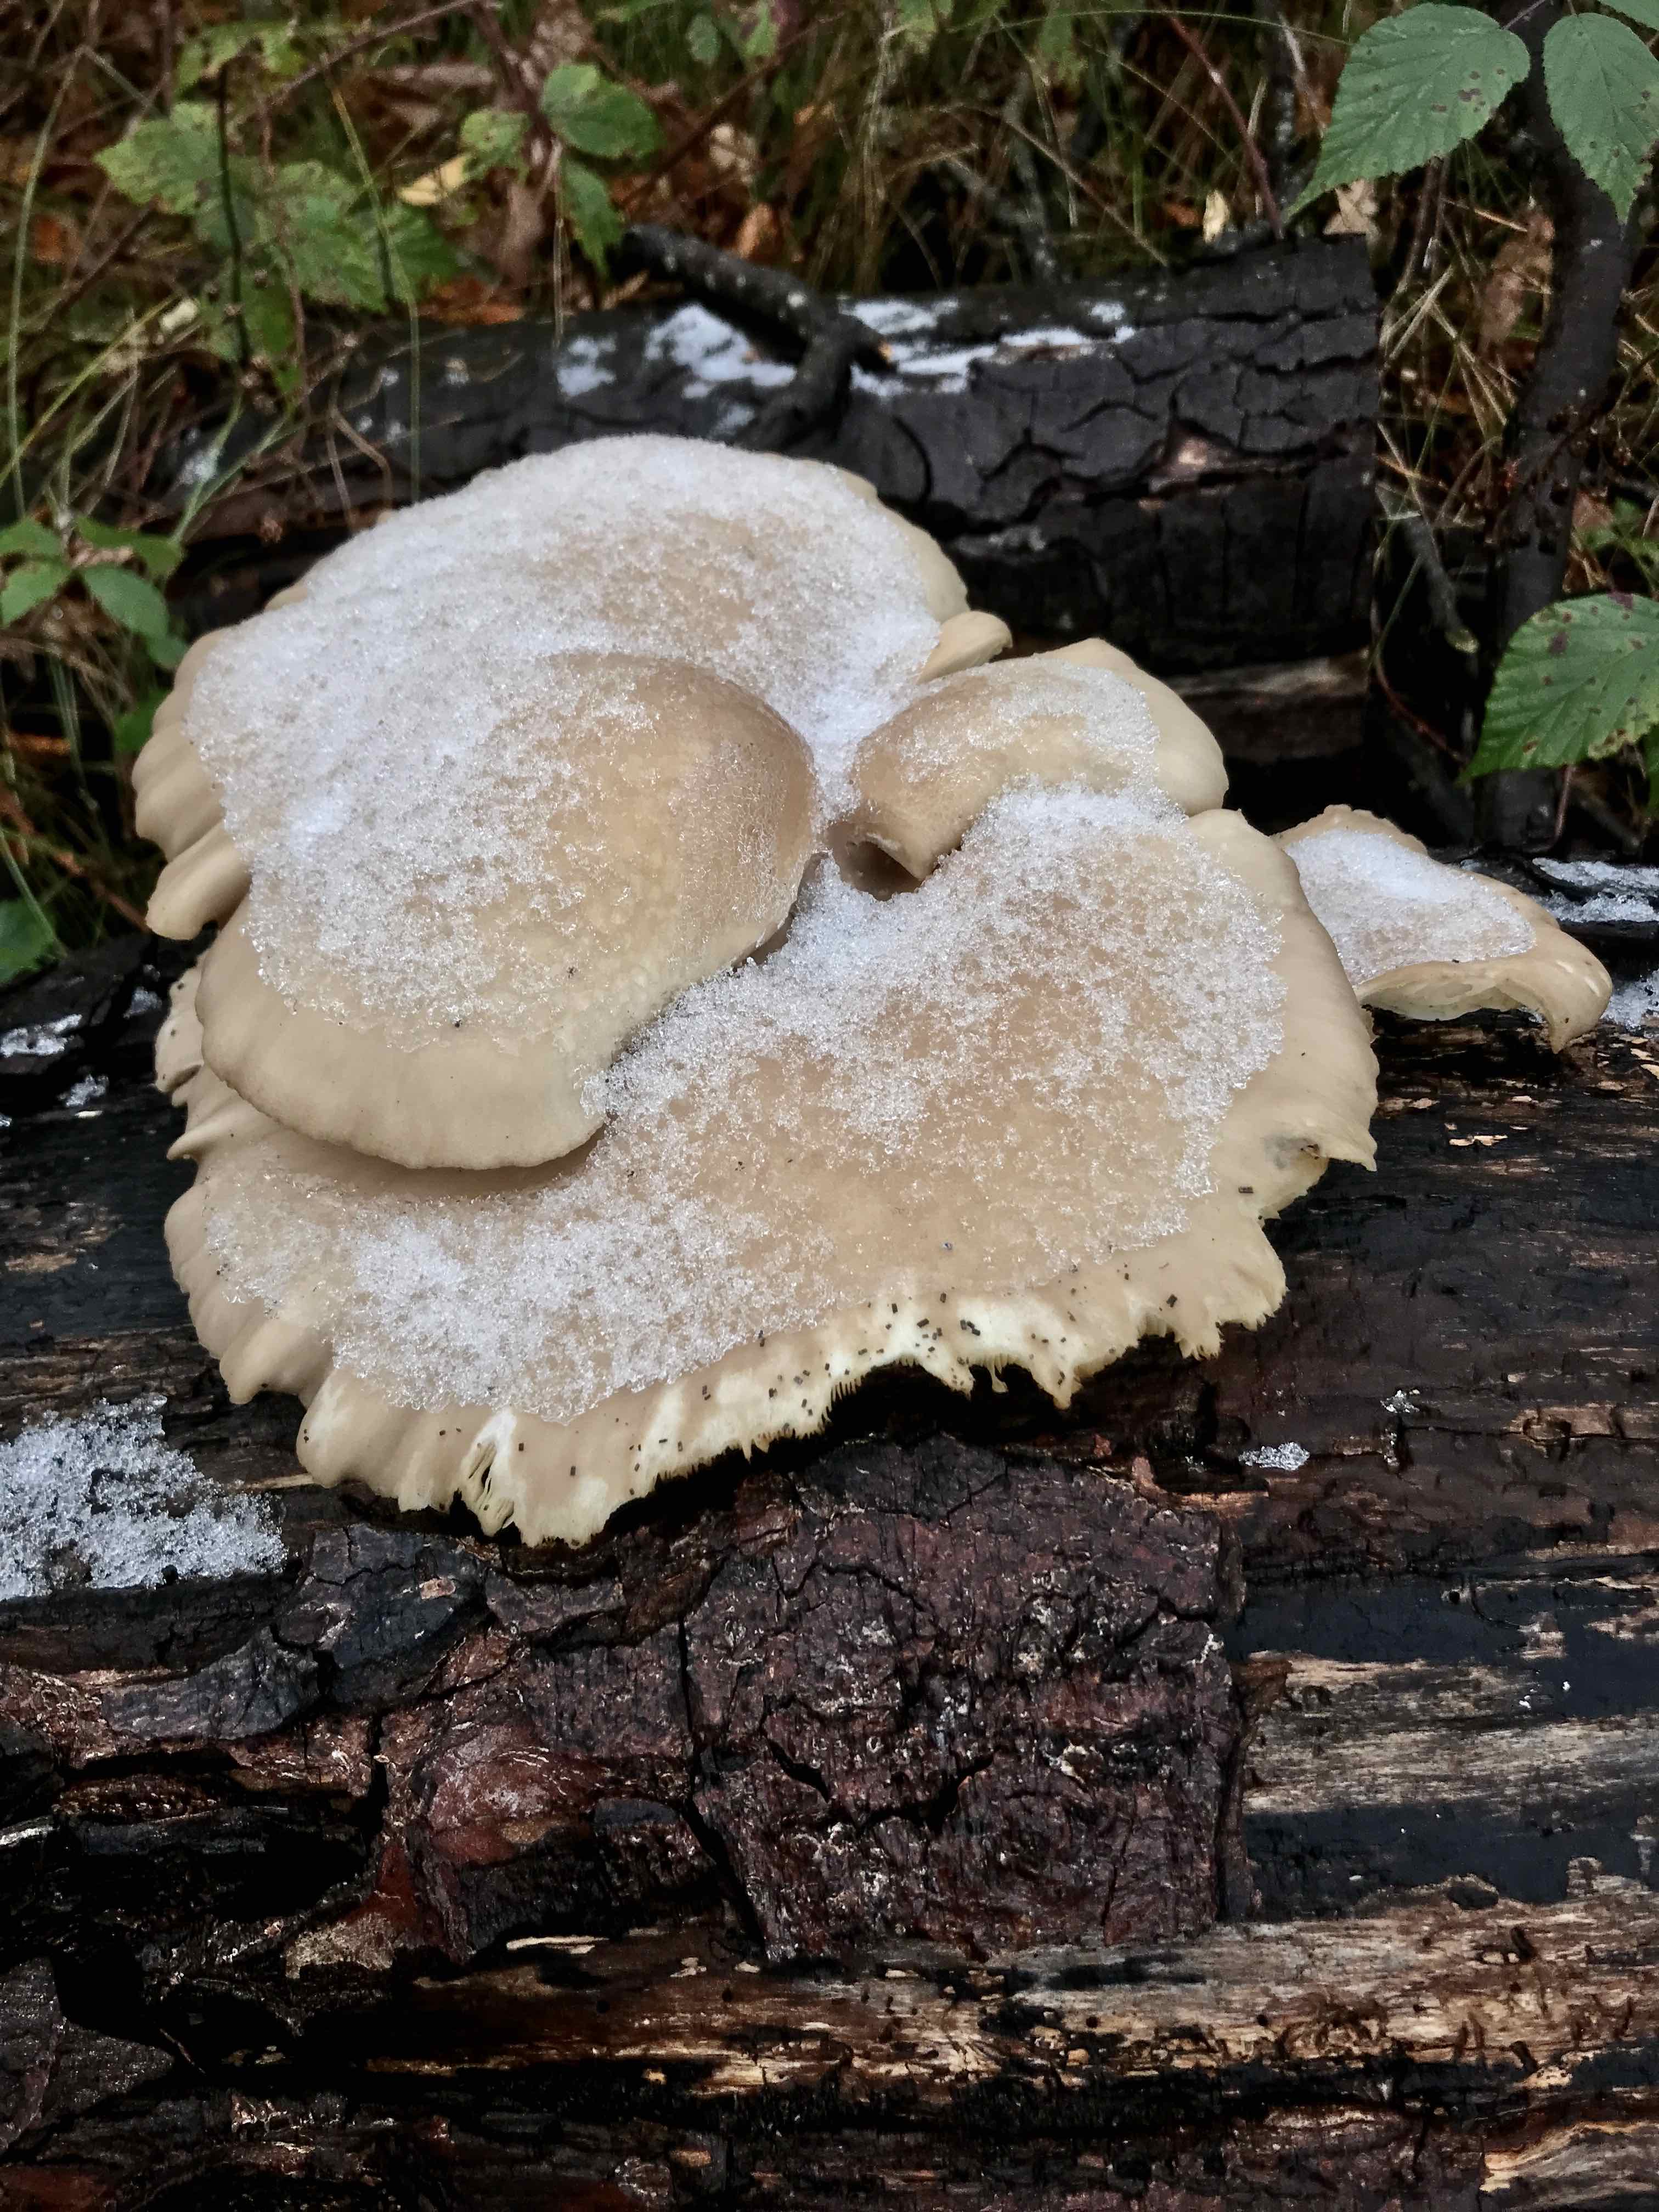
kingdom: Fungi
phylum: Basidiomycota
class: Agaricomycetes
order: Agaricales
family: Pleurotaceae
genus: Pleurotus
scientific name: Pleurotus ostreatus
